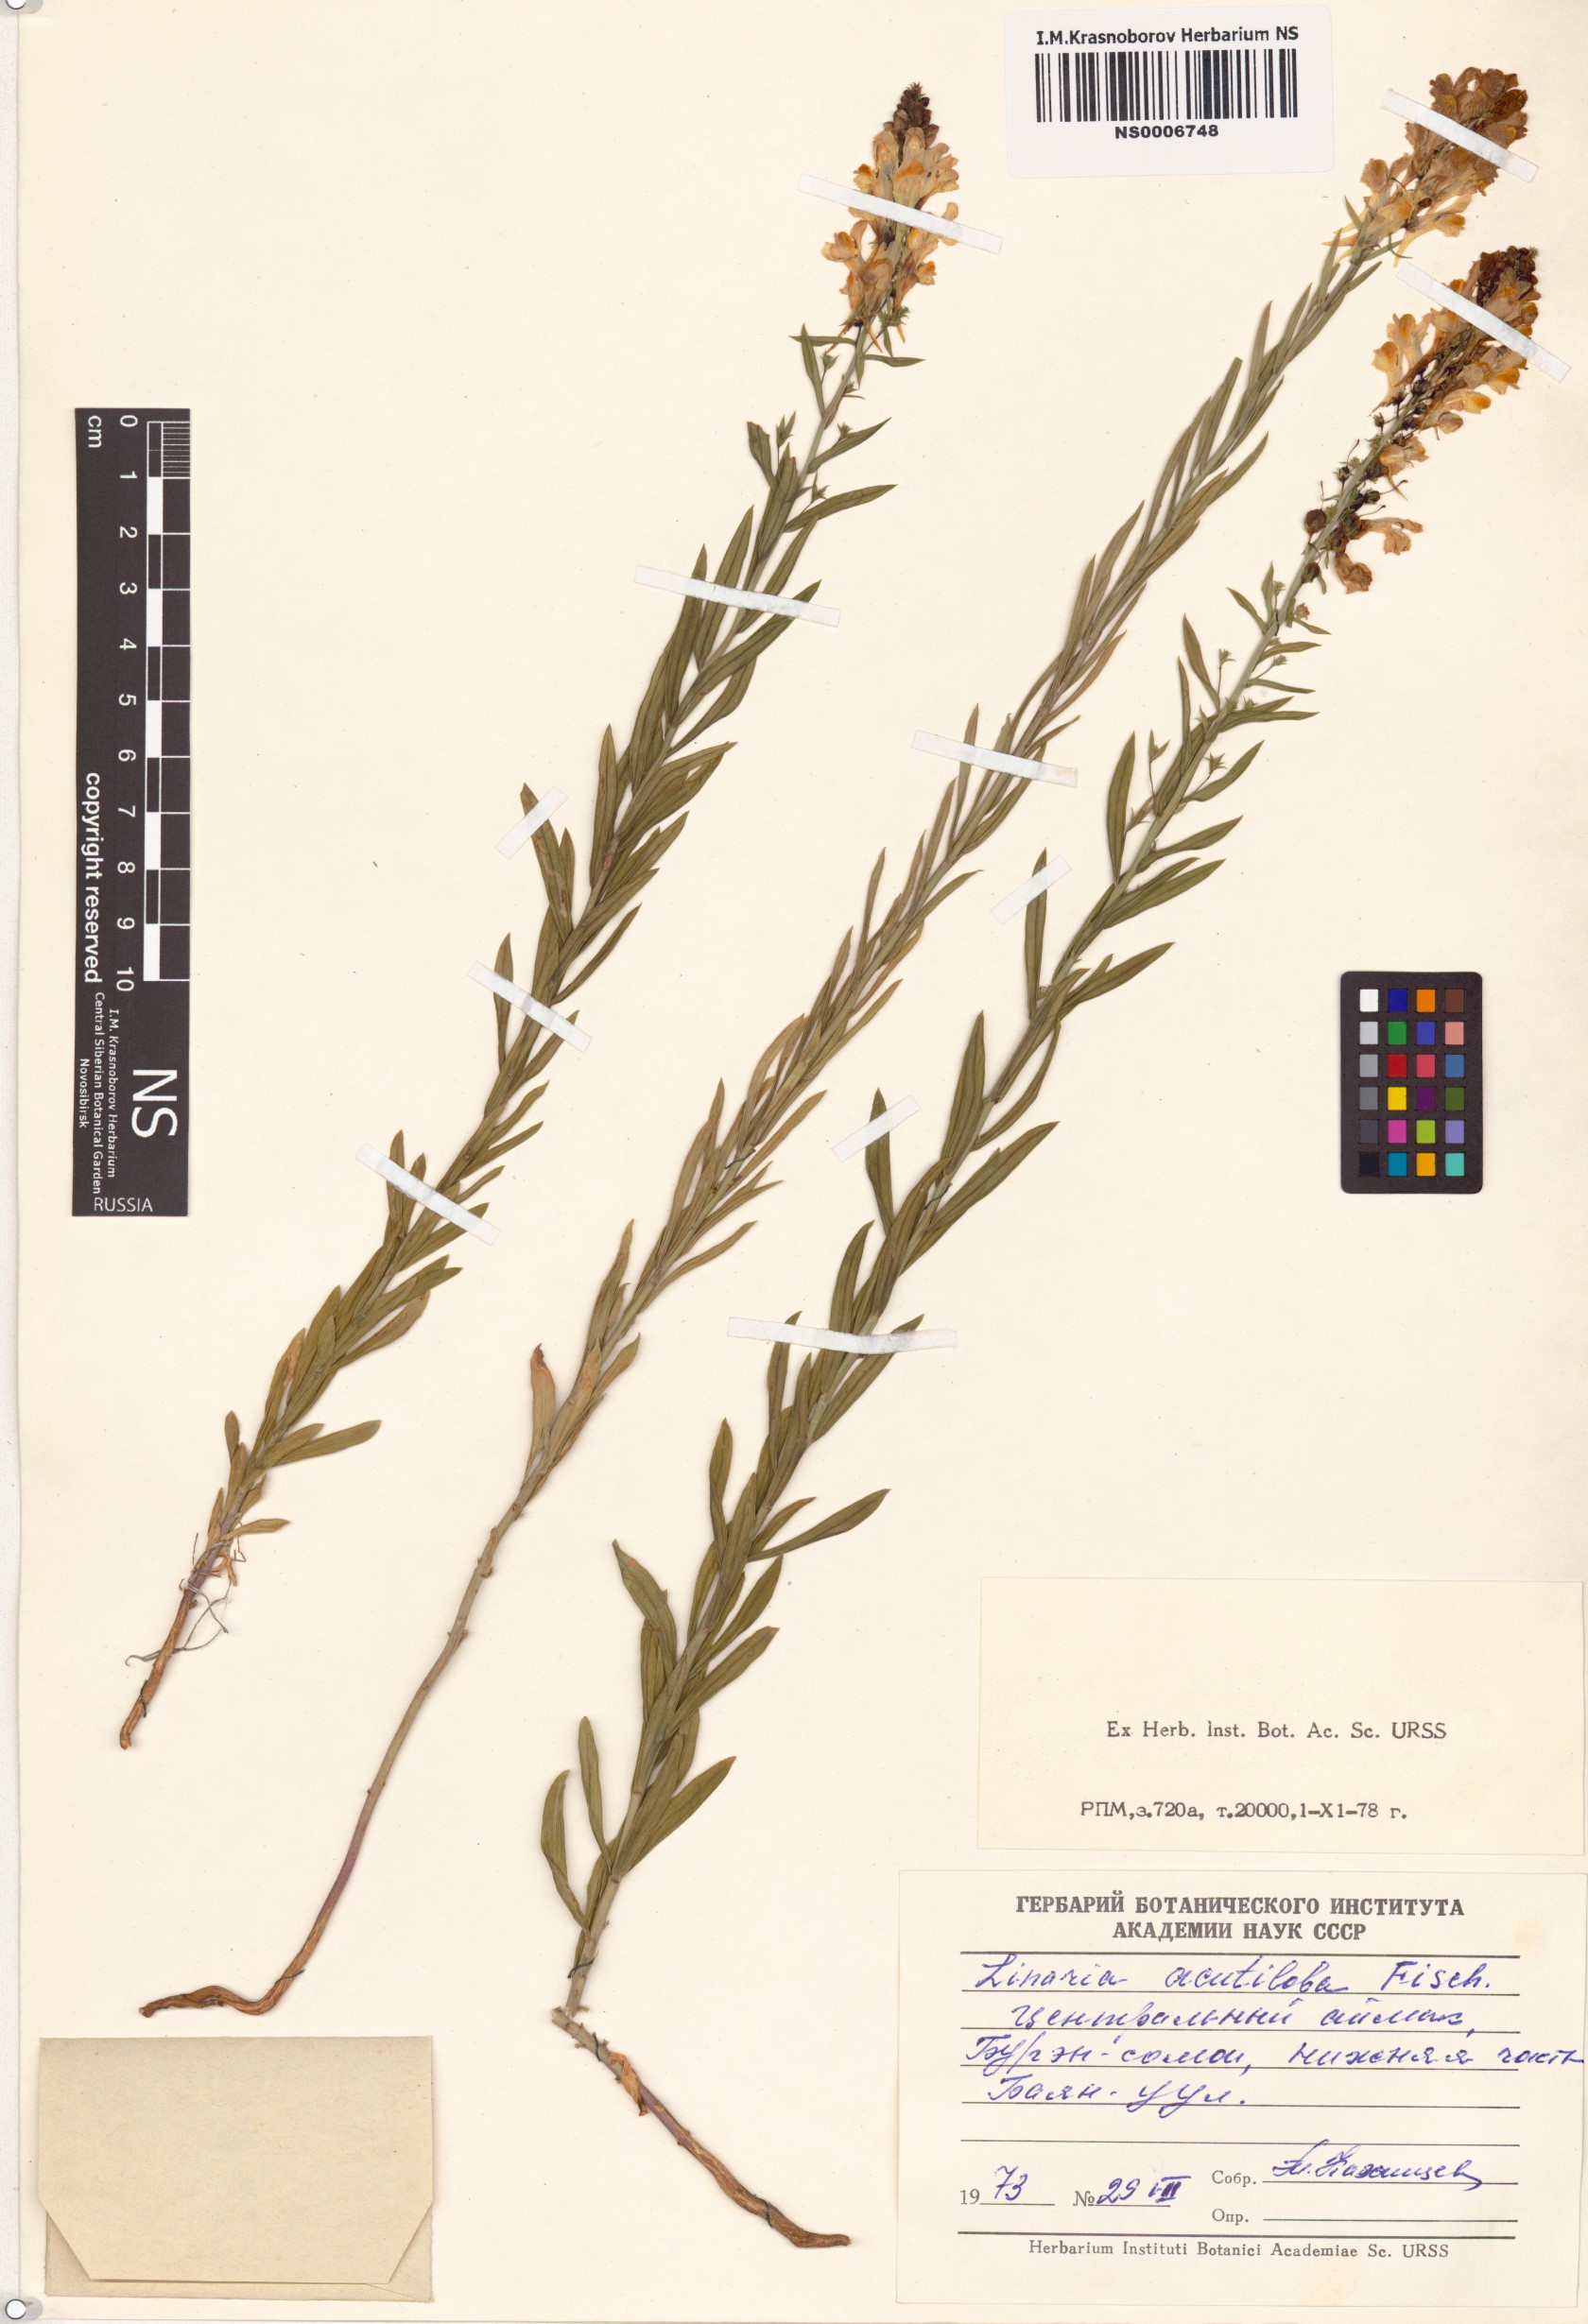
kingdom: Plantae
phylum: Tracheophyta
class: Magnoliopsida
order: Lamiales
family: Plantaginaceae
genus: Linaria
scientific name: Linaria acutiloba
